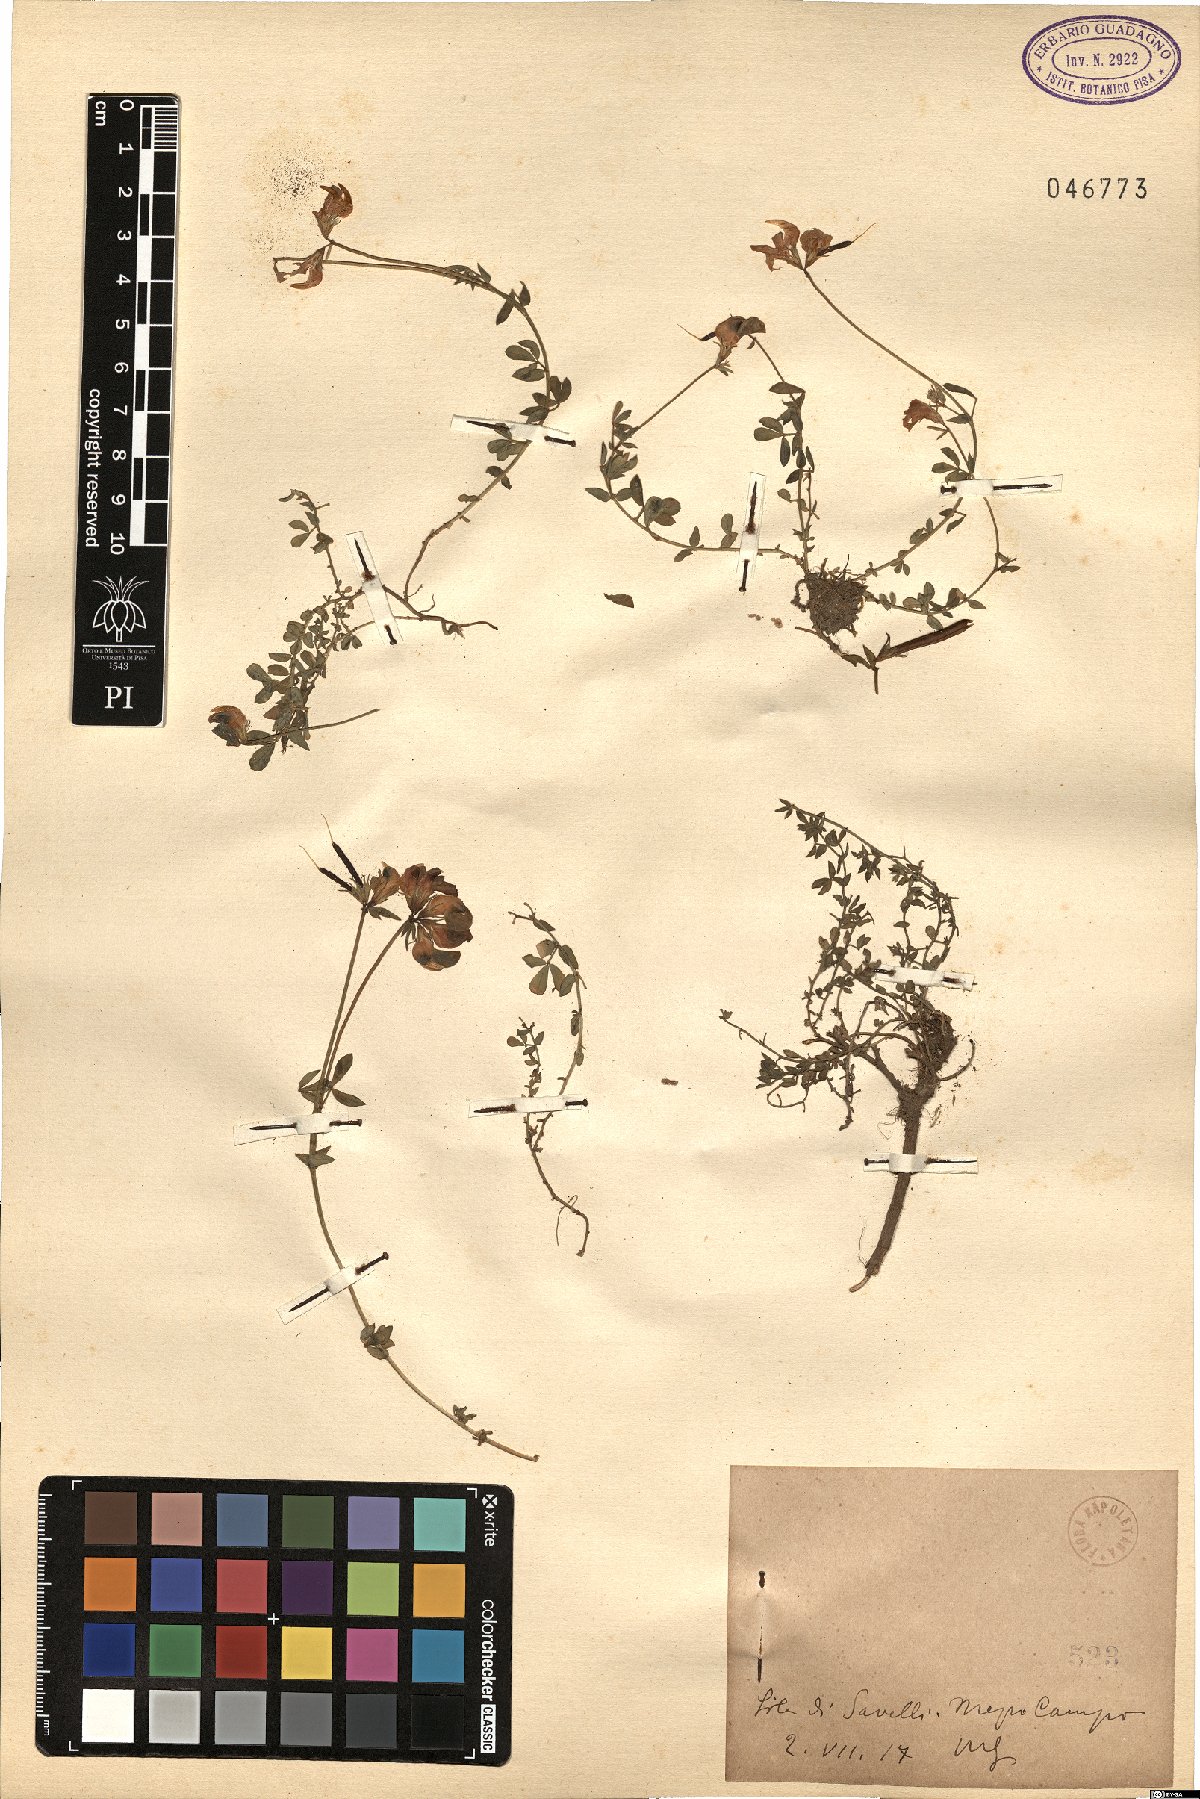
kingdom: Plantae
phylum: Tracheophyta
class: Magnoliopsida
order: Fabales
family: Fabaceae
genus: Lotus
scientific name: Lotus
